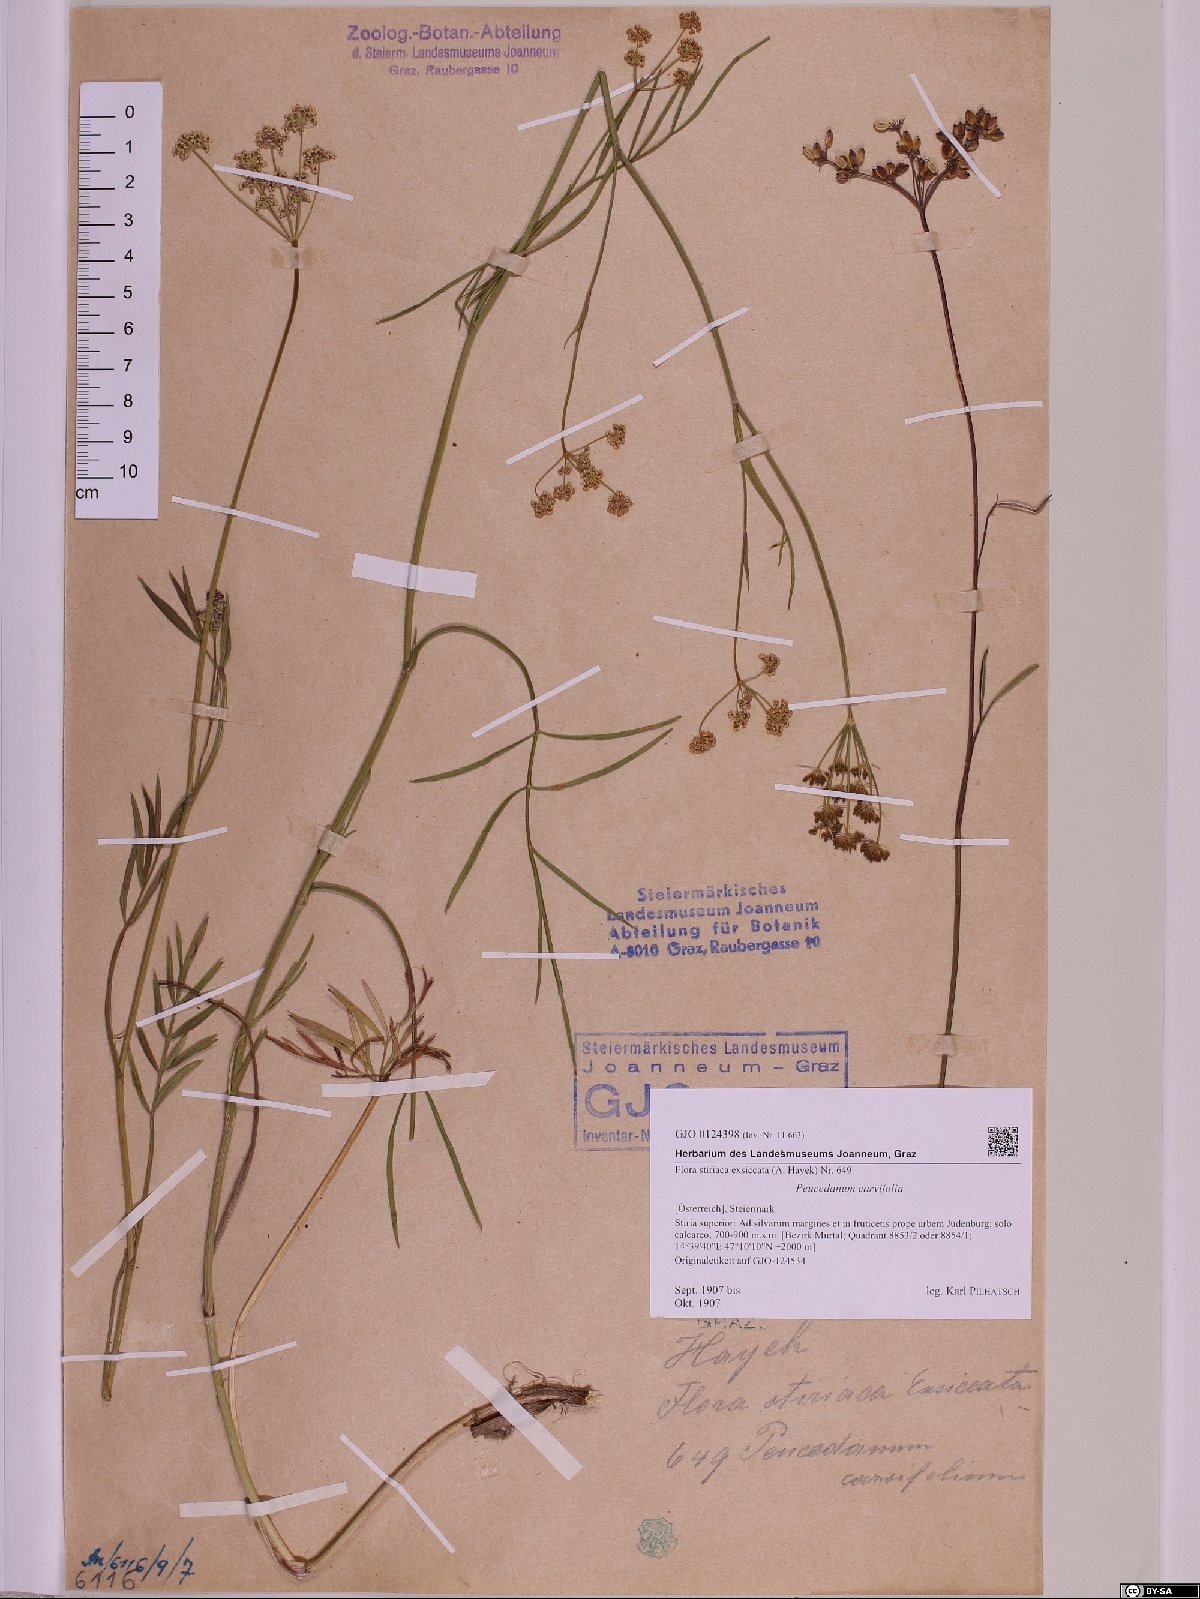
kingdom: Plantae
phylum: Tracheophyta
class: Magnoliopsida
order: Apiales
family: Apiaceae
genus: Dichoropetalum
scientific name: Dichoropetalum carvifolia
